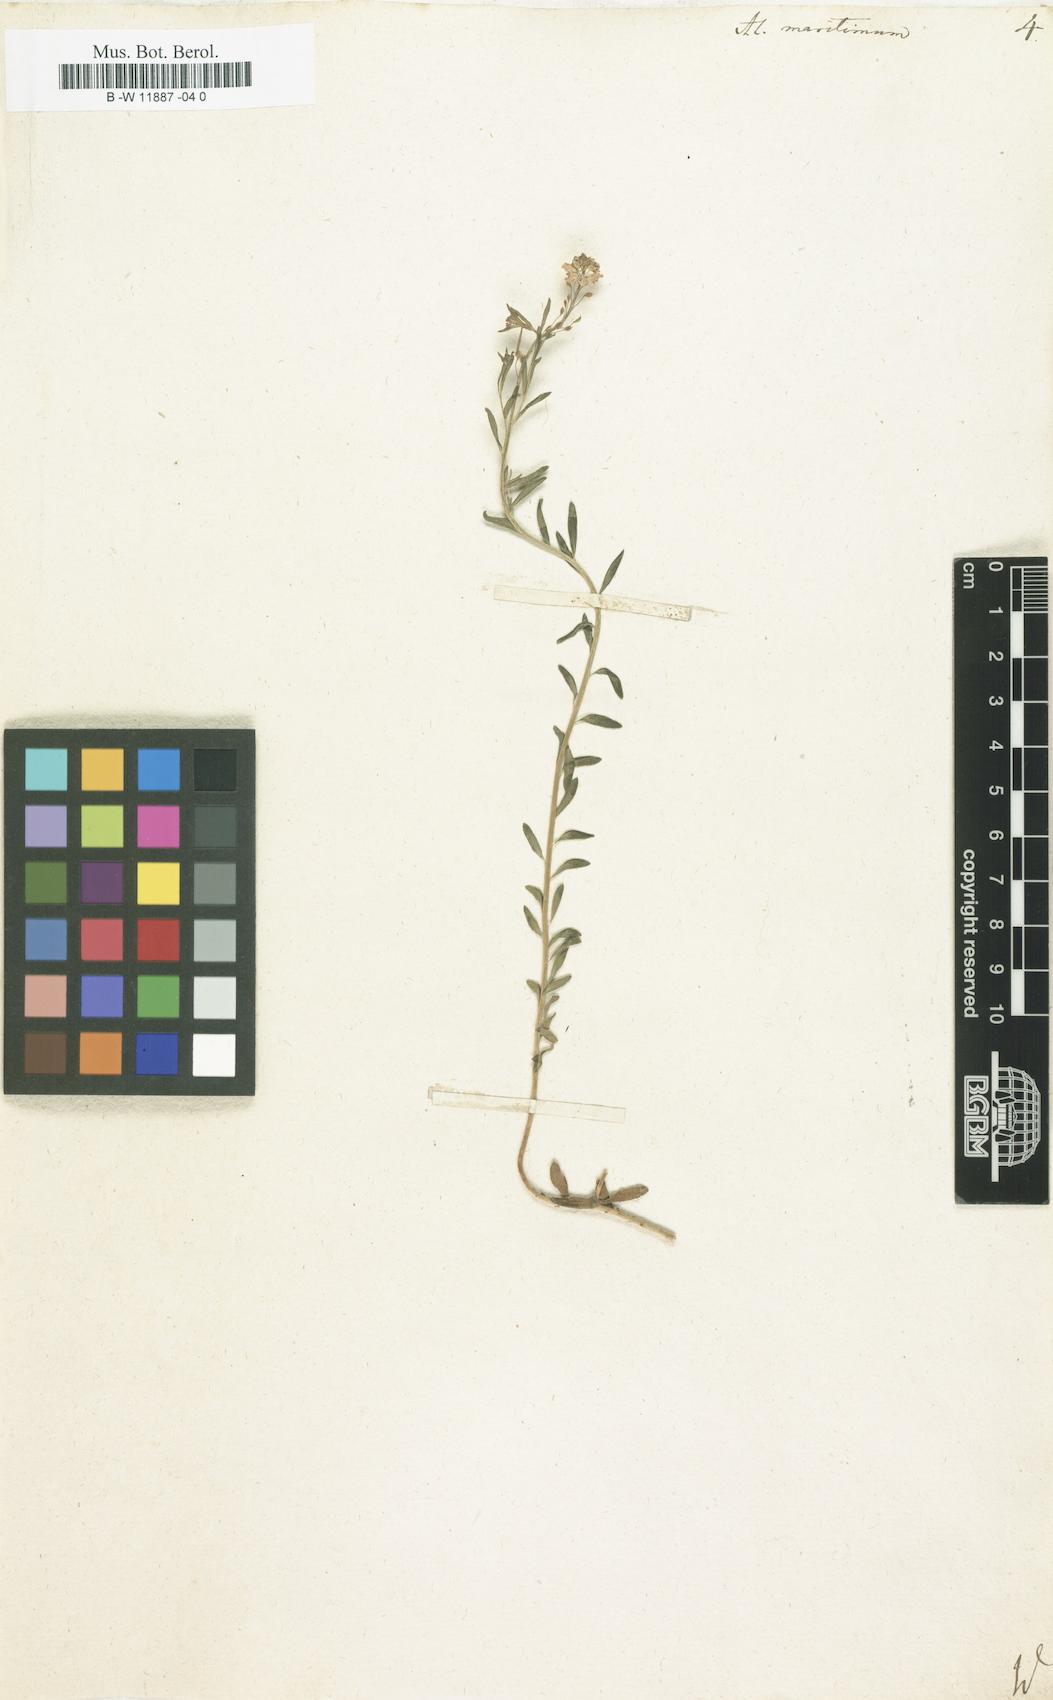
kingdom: Plantae
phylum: Tracheophyta
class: Magnoliopsida
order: Brassicales
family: Brassicaceae
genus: Lobularia
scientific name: Lobularia maritima
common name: Sweet alison
